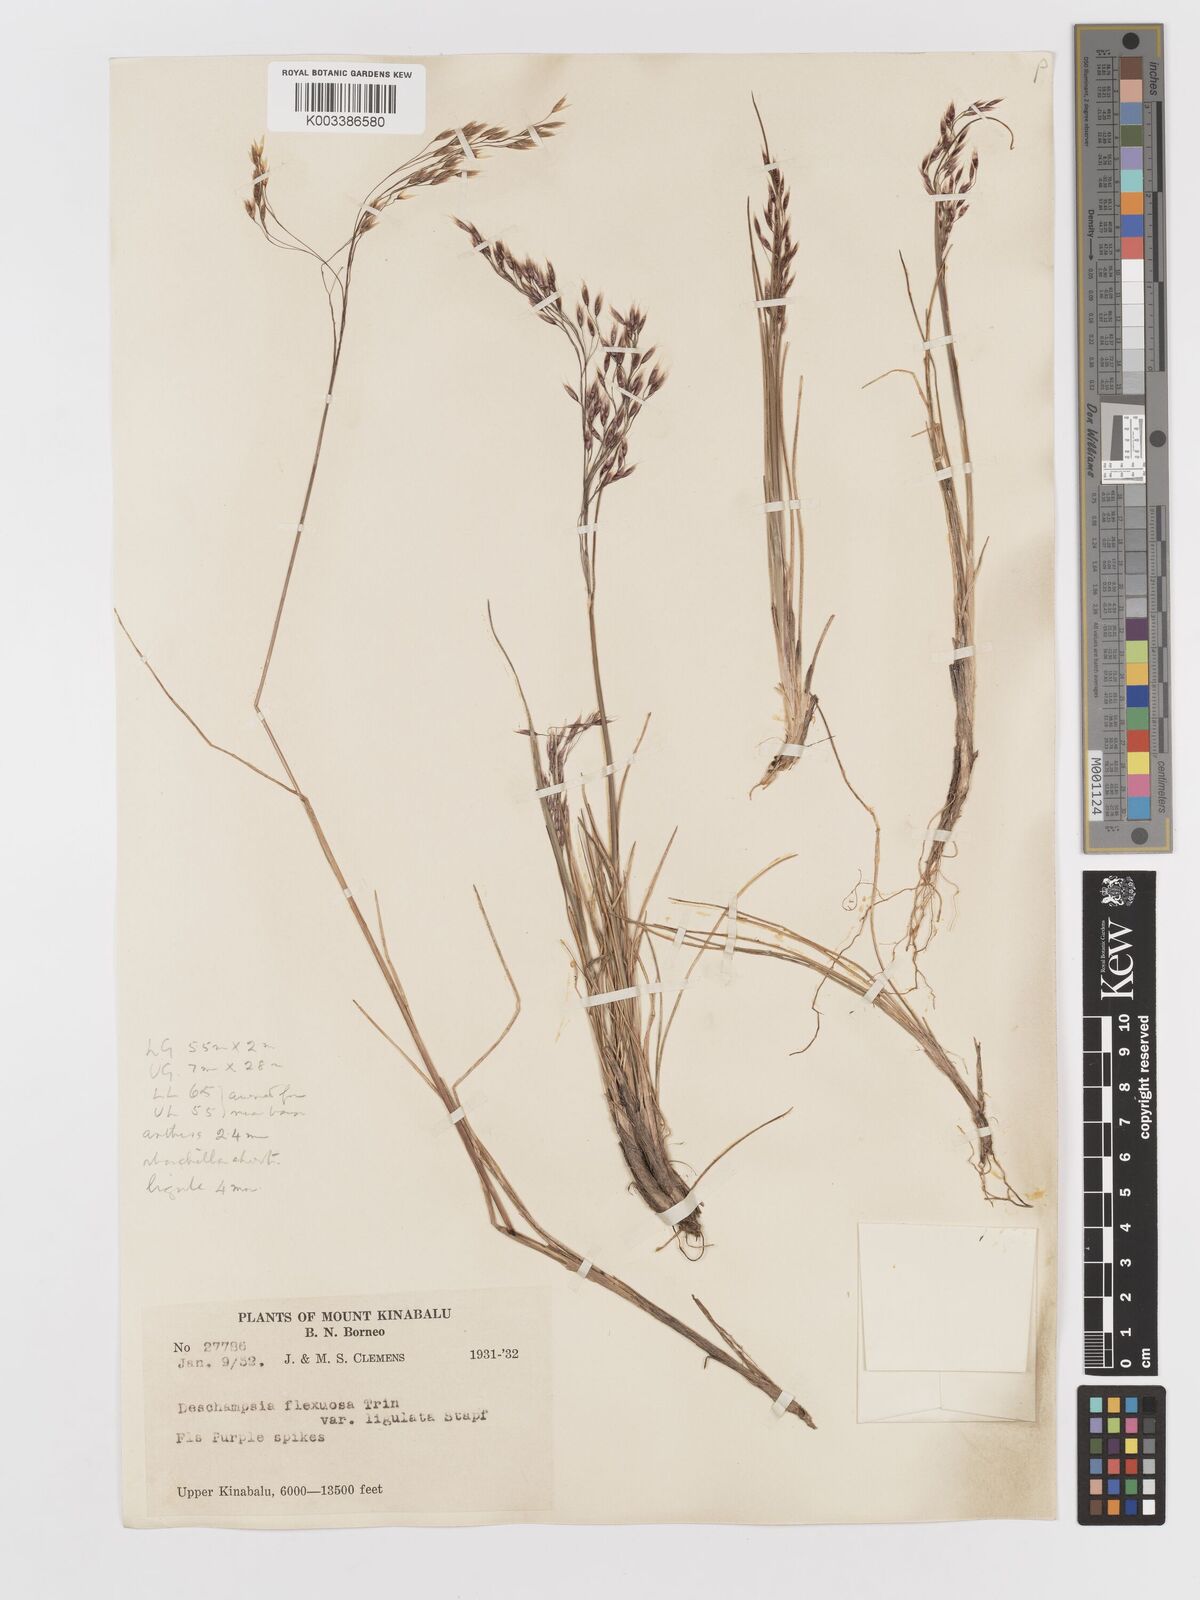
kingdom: Plantae
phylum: Tracheophyta
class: Liliopsida
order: Poales
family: Poaceae
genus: Avenella
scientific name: Avenella flexuosa
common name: Wavy hairgrass
